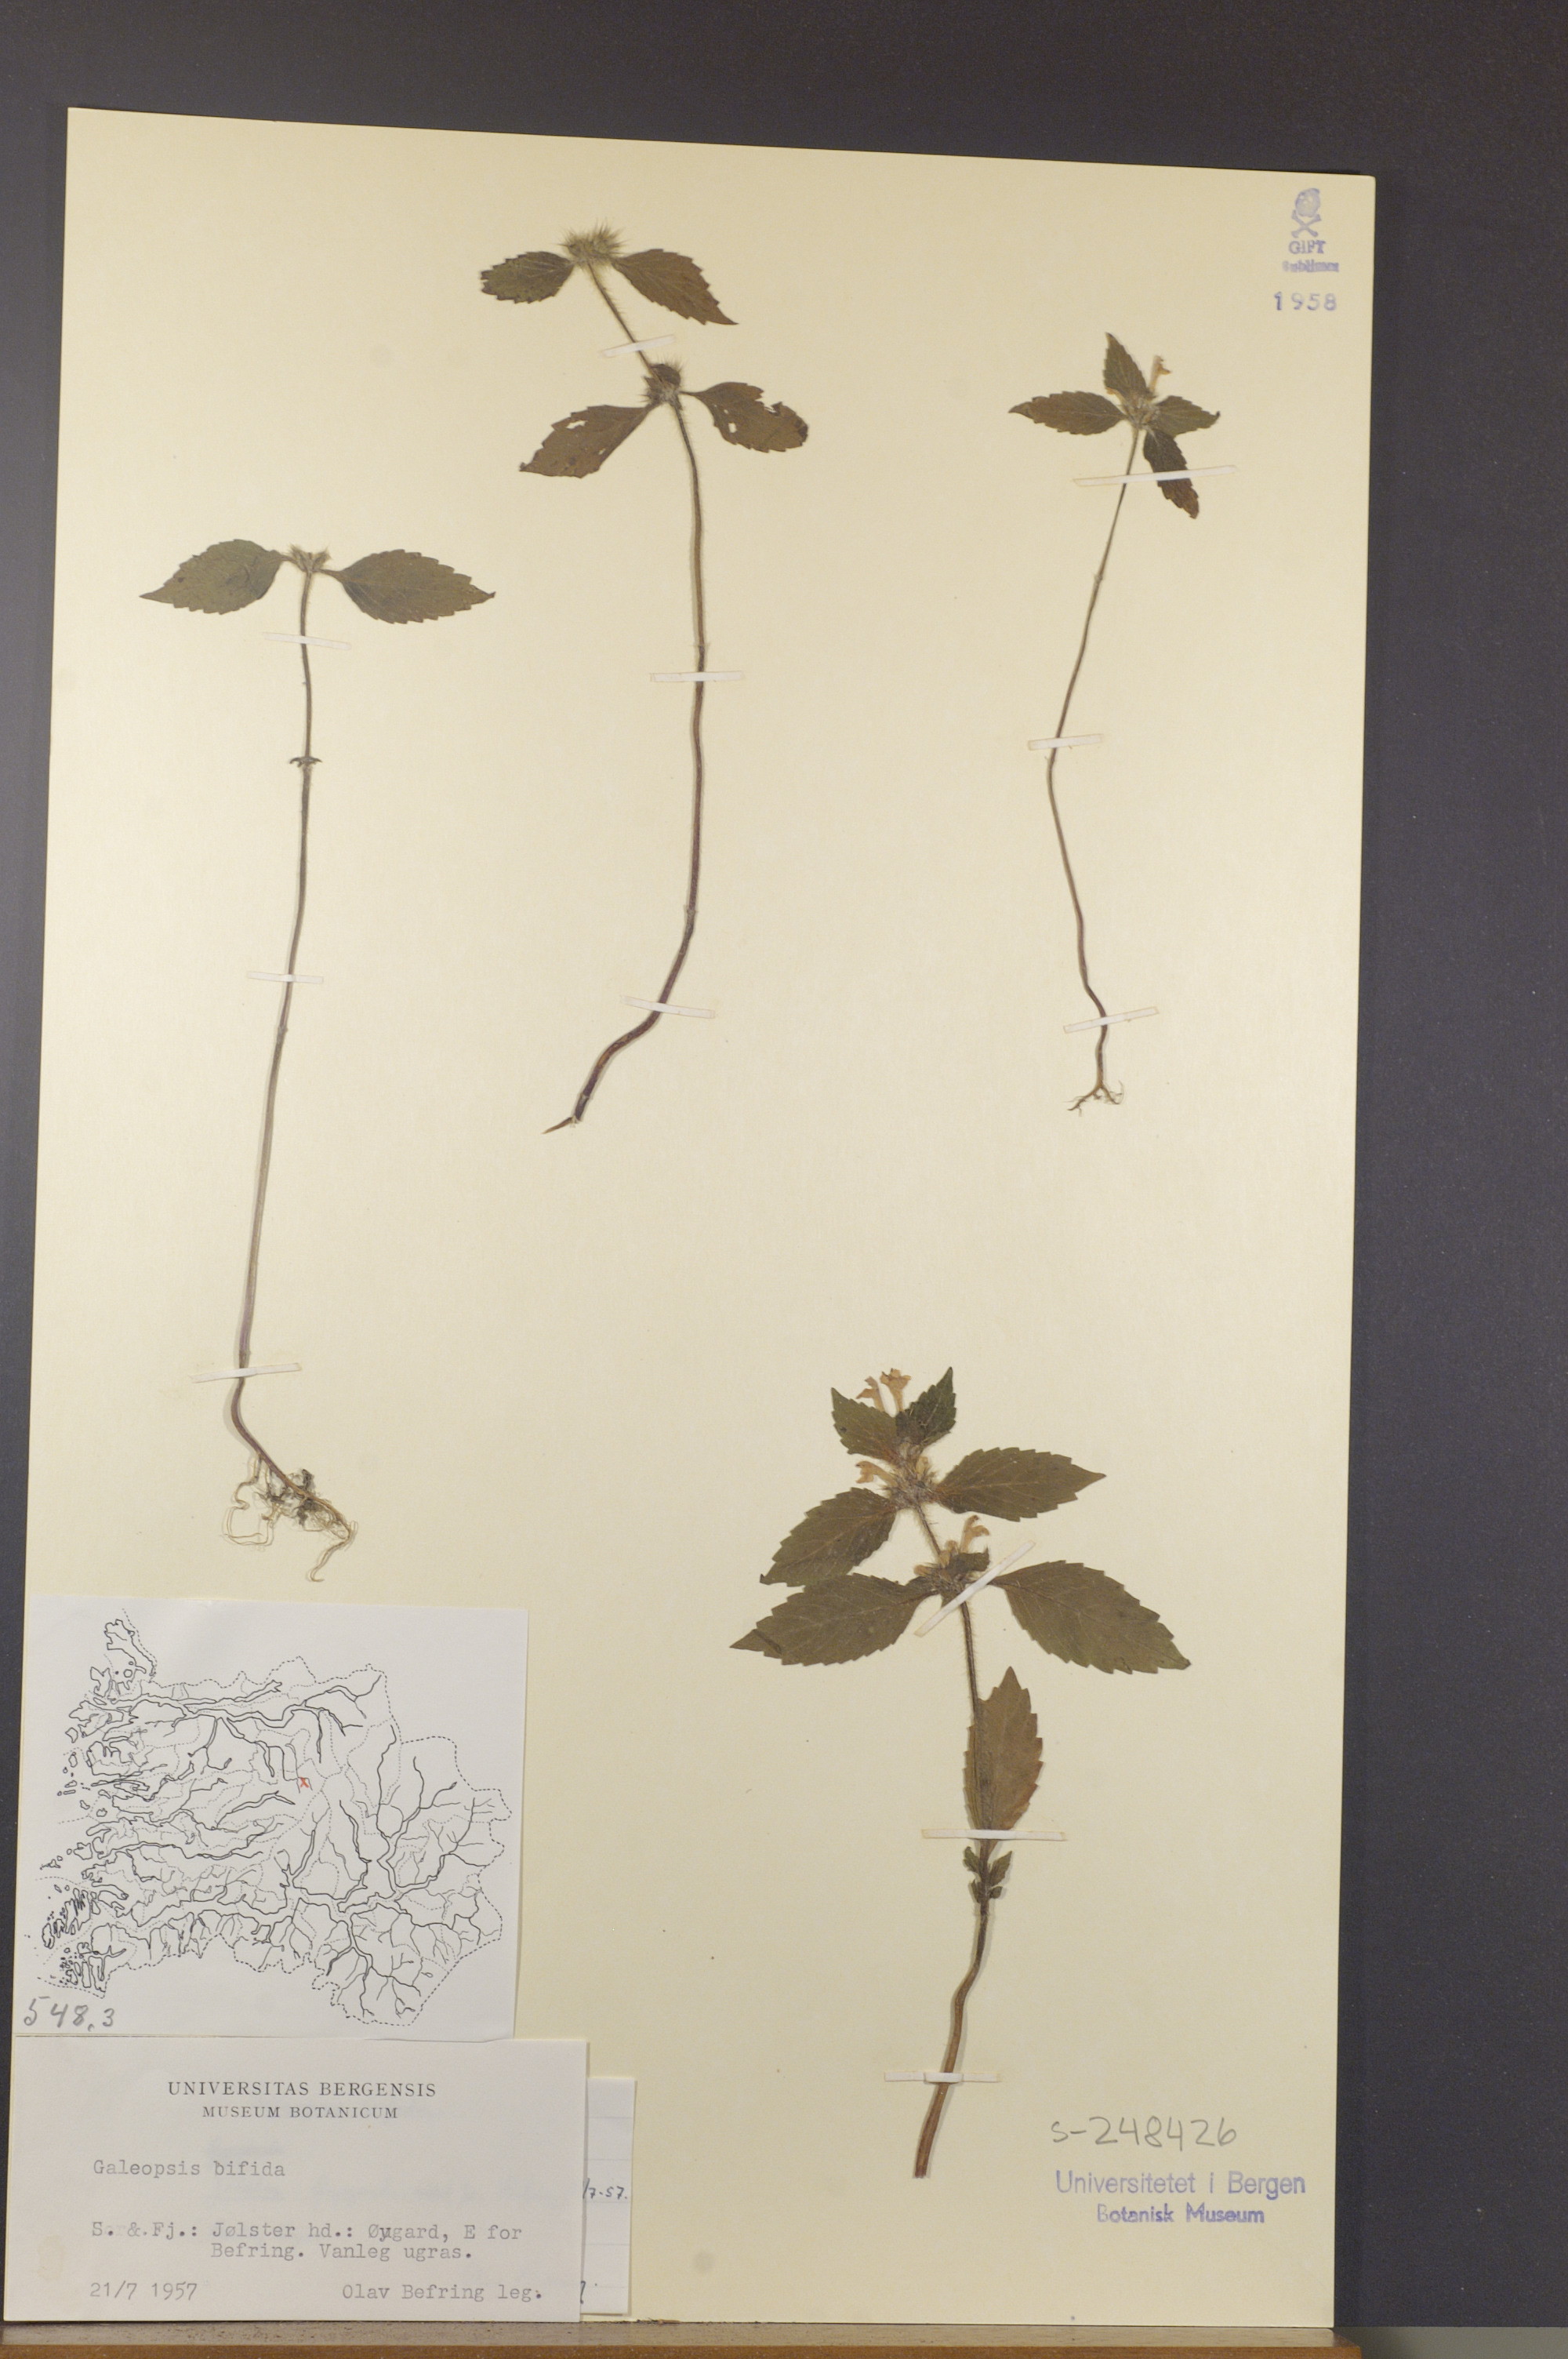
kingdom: Plantae
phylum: Tracheophyta
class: Magnoliopsida
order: Lamiales
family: Lamiaceae
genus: Galeopsis
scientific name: Galeopsis bifida
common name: Bifid hemp-nettle
